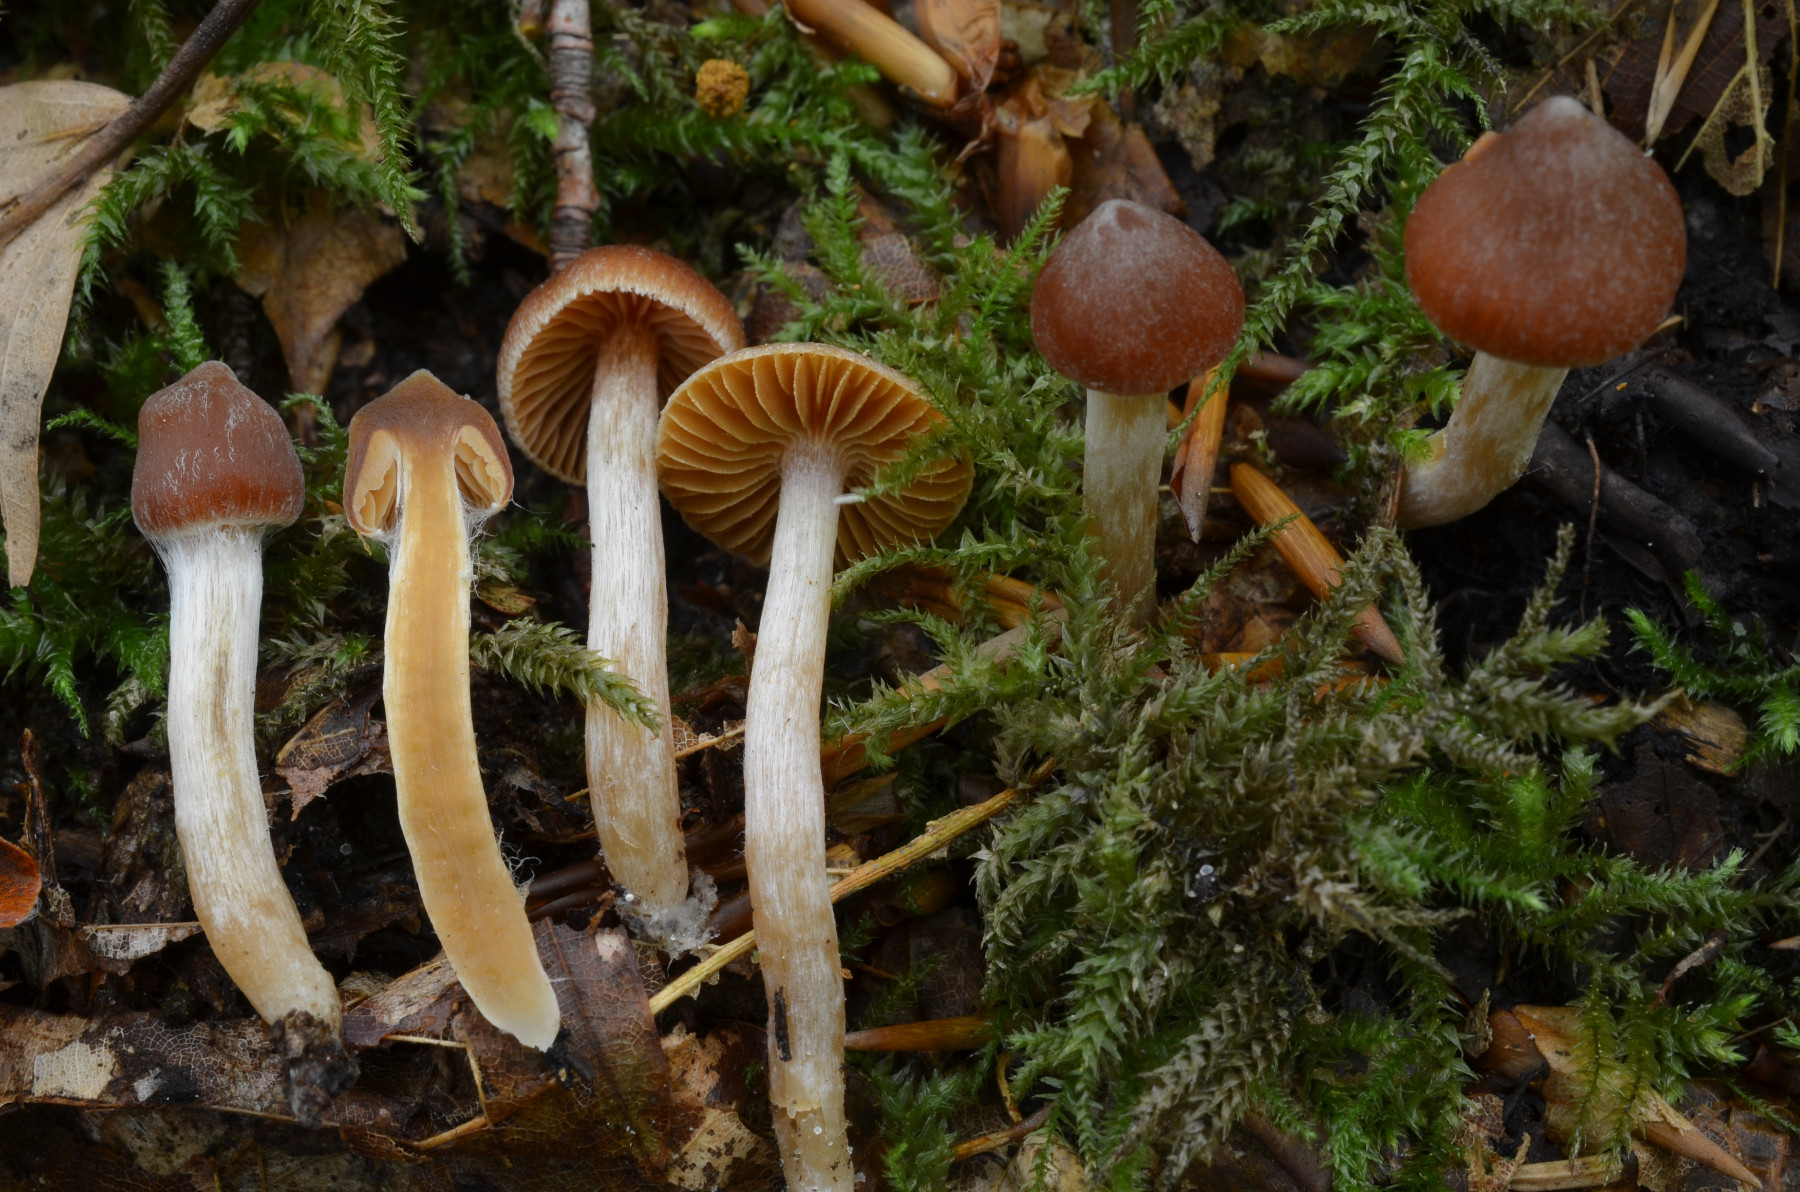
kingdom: Fungi
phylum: Basidiomycota
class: Agaricomycetes
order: Agaricales
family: Cortinariaceae
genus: Cortinarius
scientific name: Cortinarius vicinus
